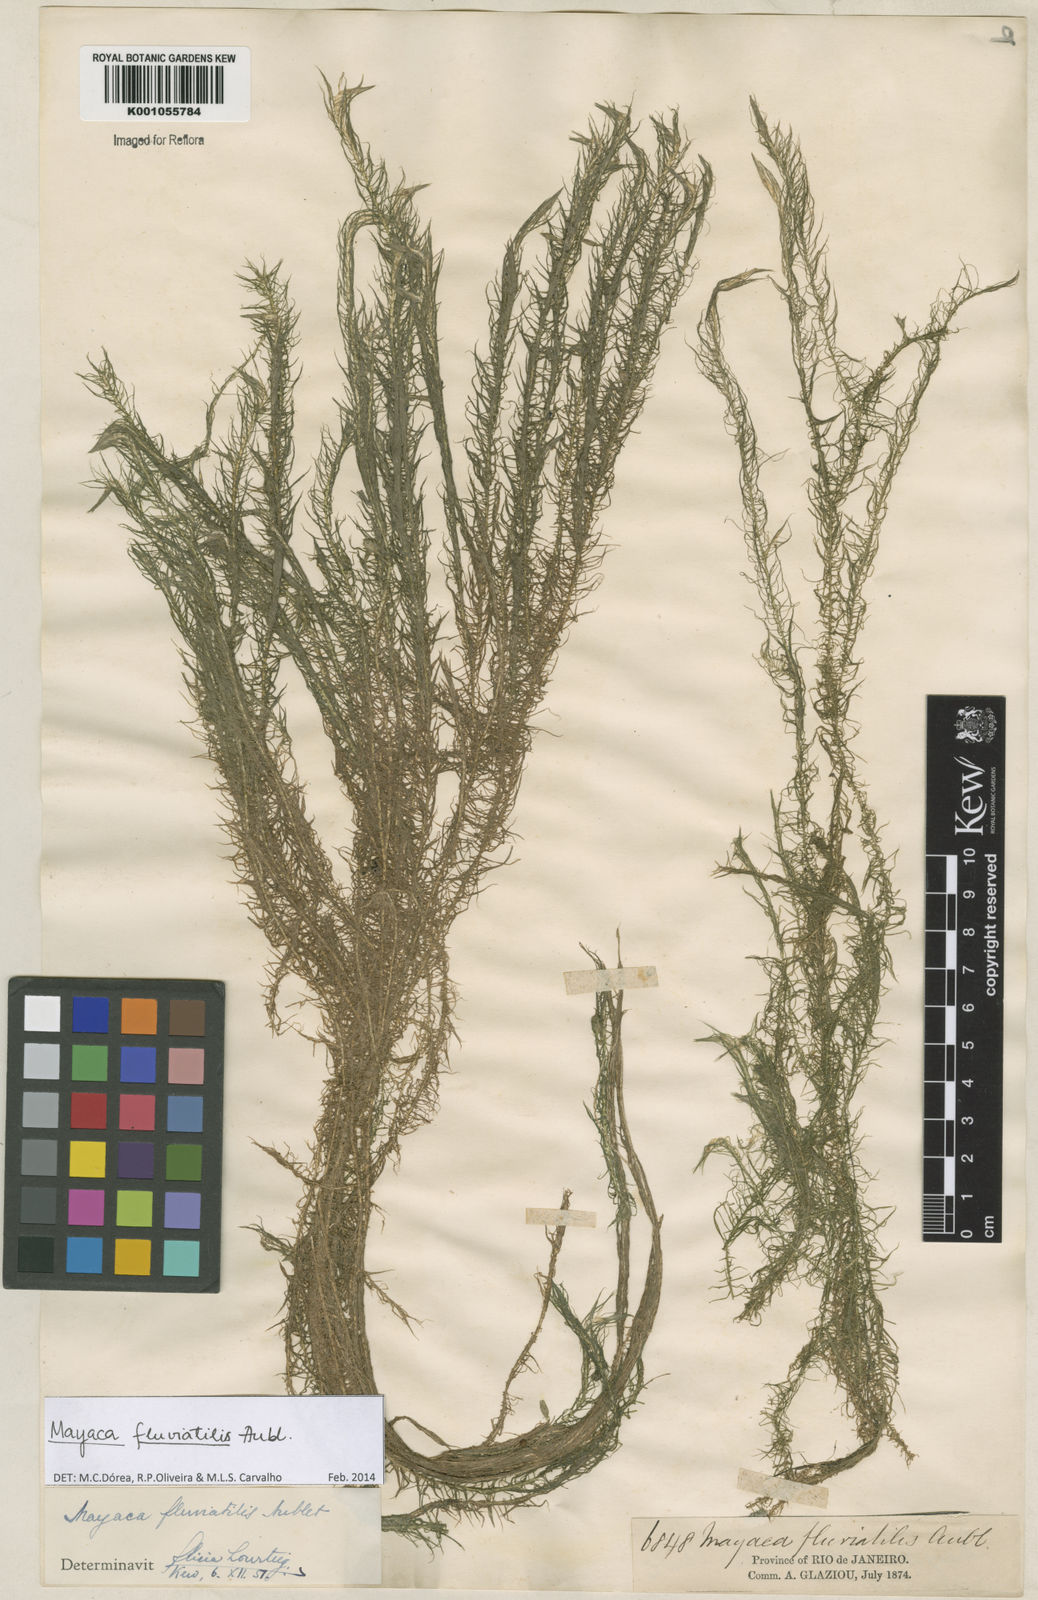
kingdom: Plantae
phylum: Tracheophyta
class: Liliopsida
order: Poales
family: Mayacaceae
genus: Mayaca
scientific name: Mayaca
